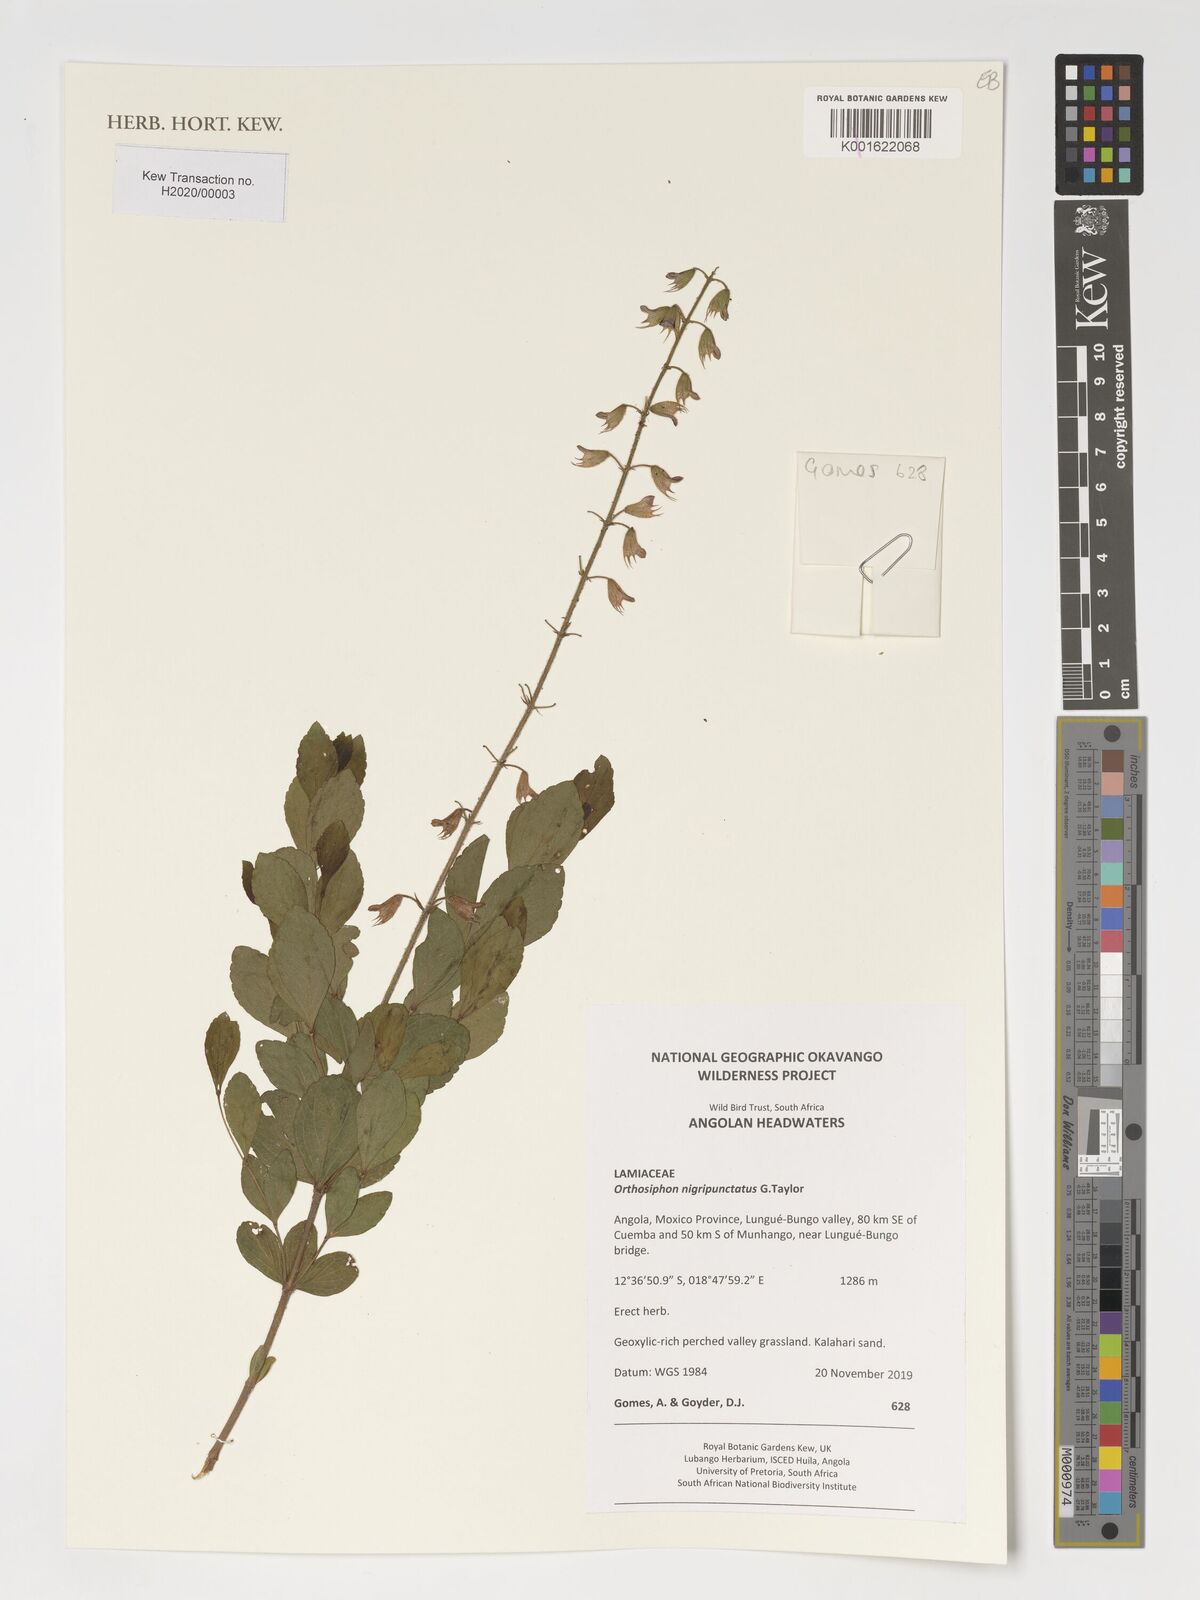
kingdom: Plantae
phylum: Tracheophyta
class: Magnoliopsida
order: Lamiales
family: Lamiaceae
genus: Orthosiphon
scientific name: Orthosiphon nigripunctatus
